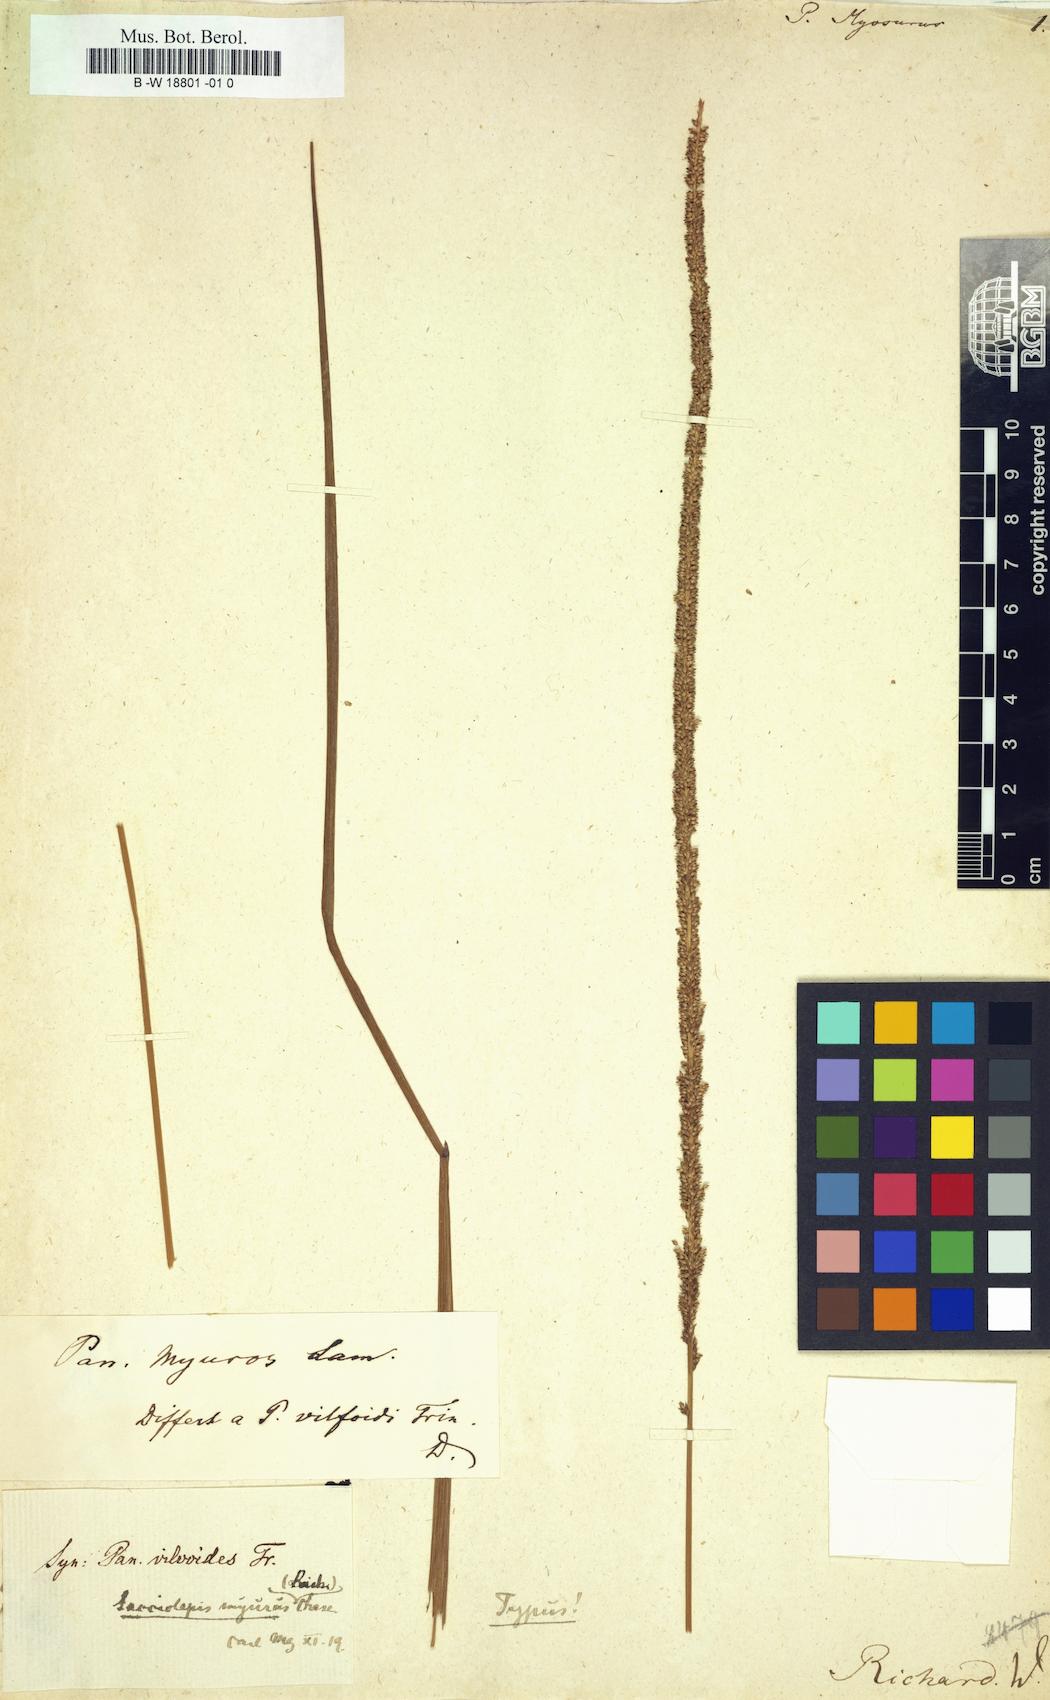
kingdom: Plantae
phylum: Tracheophyta
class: Liliopsida
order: Poales
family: Poaceae
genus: Sacciolepis
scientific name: Sacciolepis myuros
